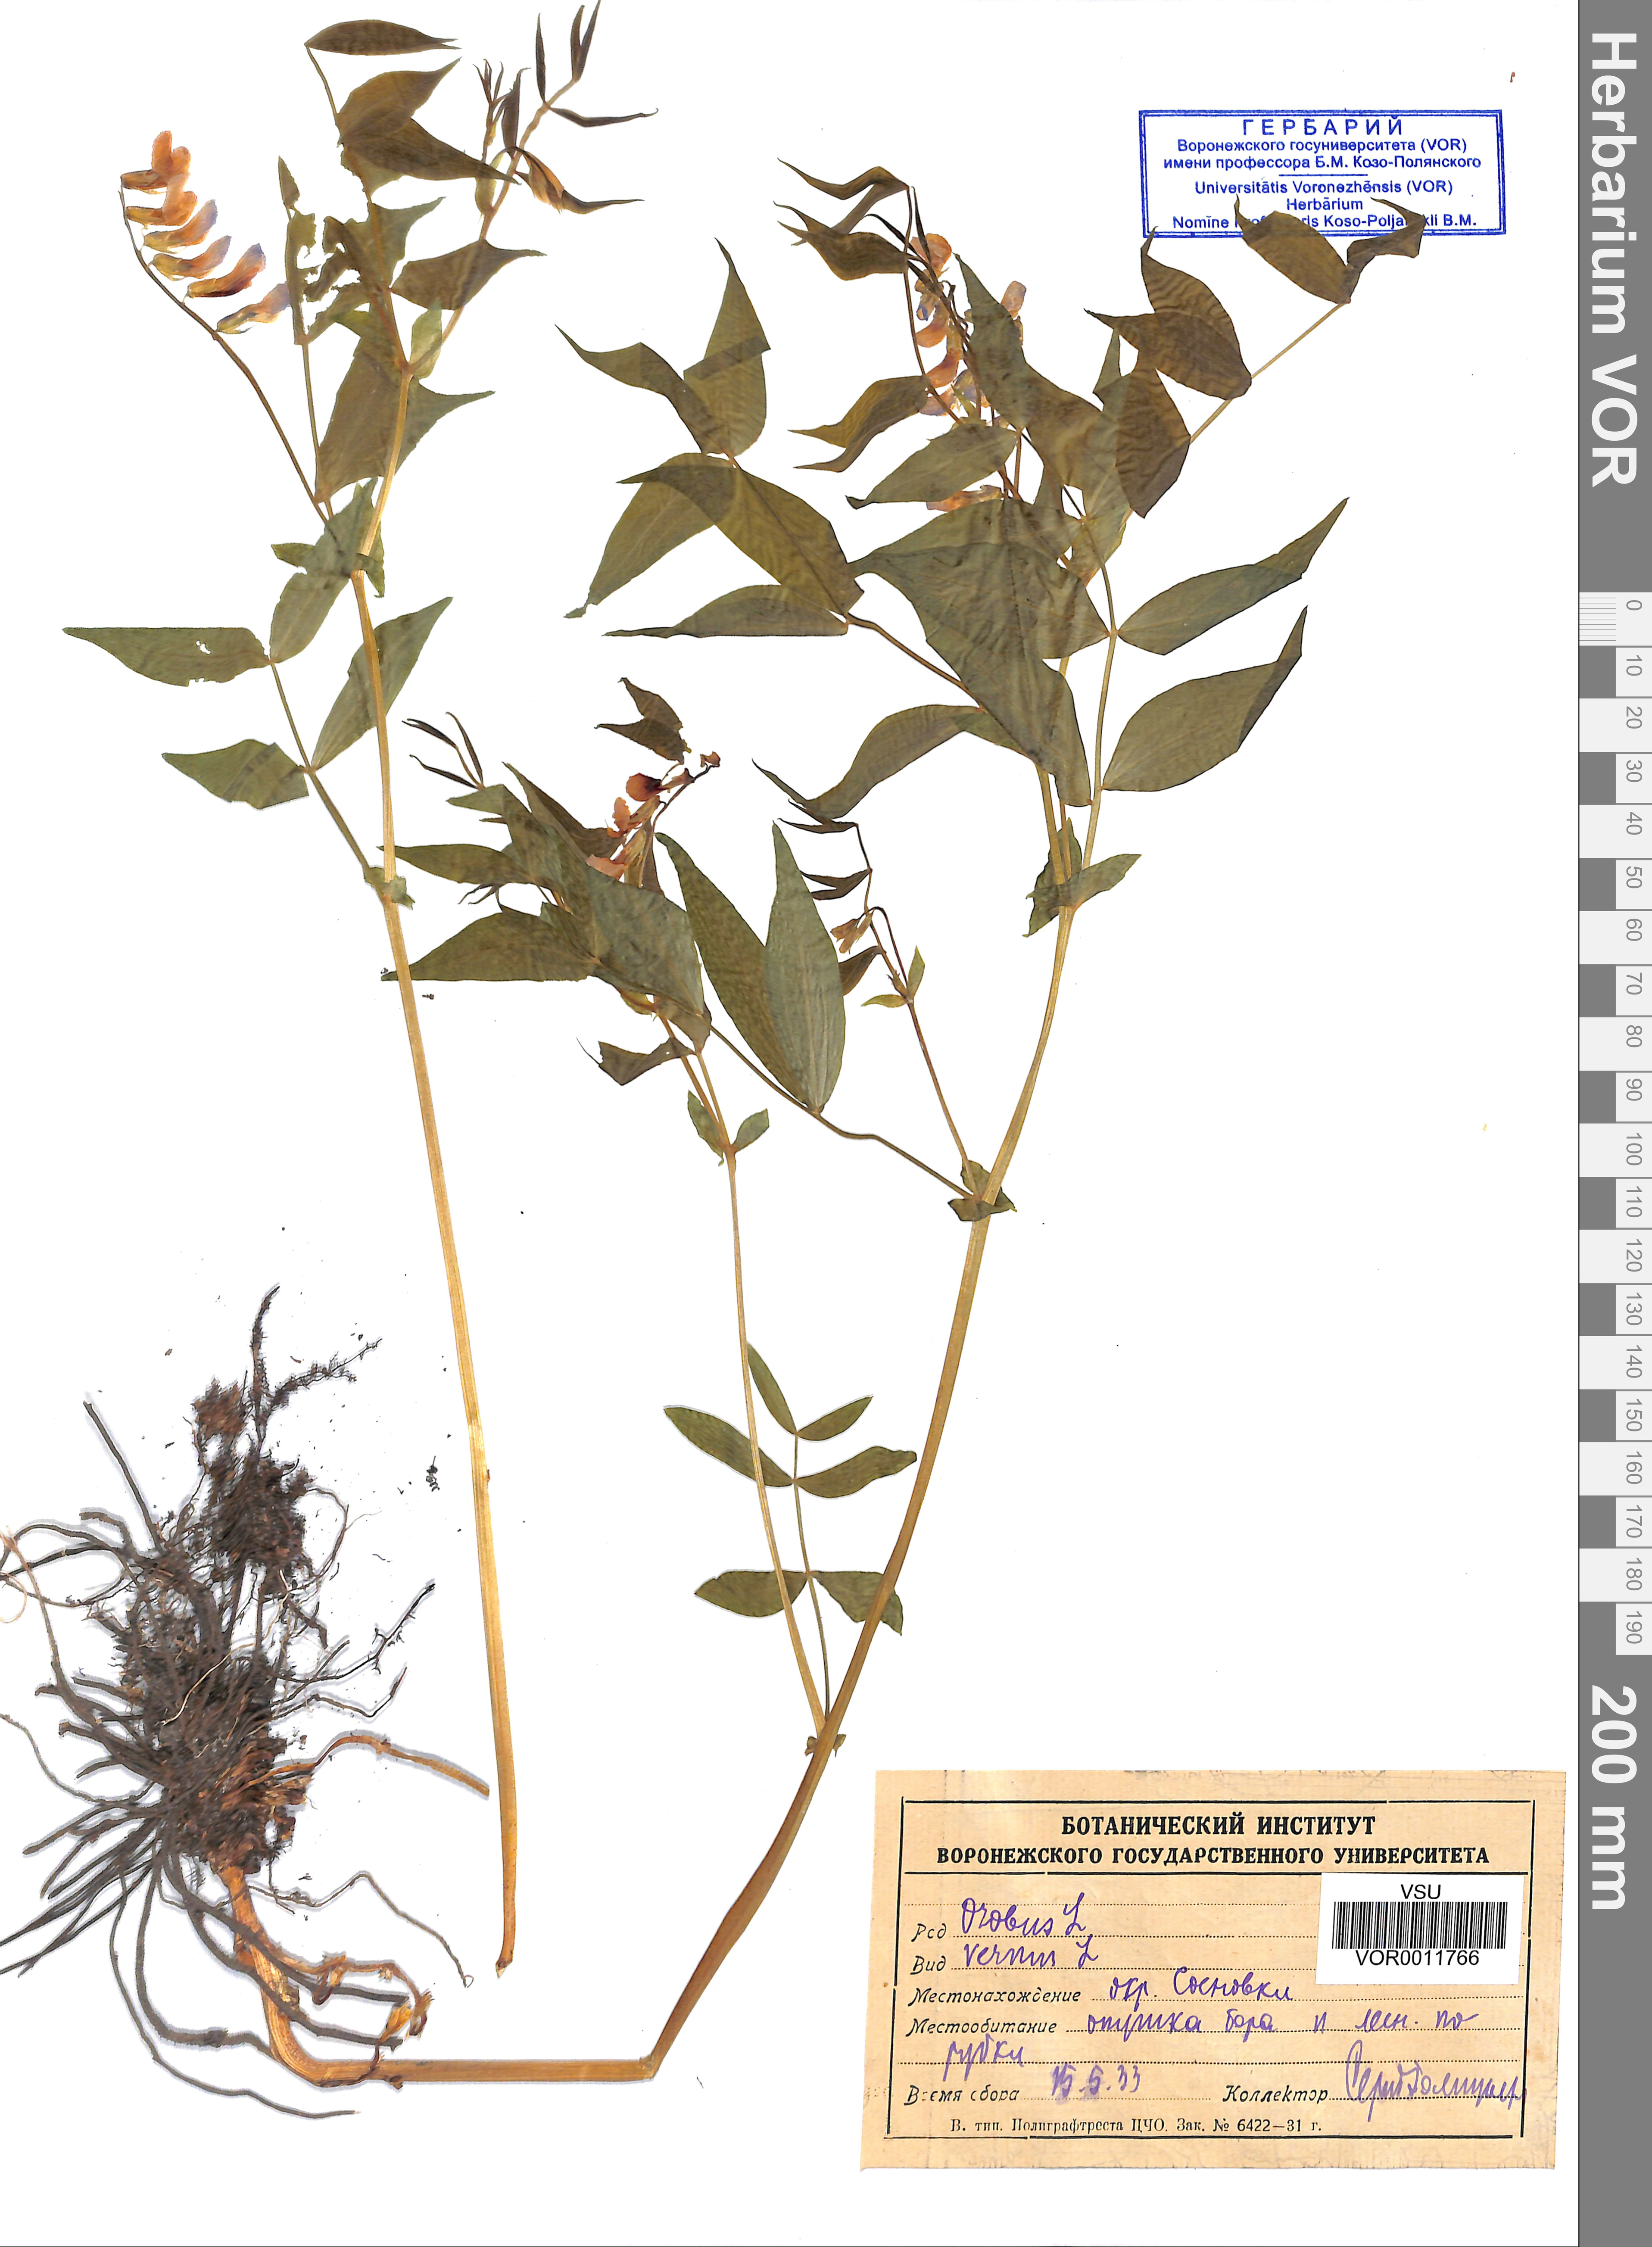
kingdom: Plantae
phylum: Tracheophyta
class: Magnoliopsida
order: Fabales
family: Fabaceae
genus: Lathyrus
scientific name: Lathyrus vernus
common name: Spring pea
